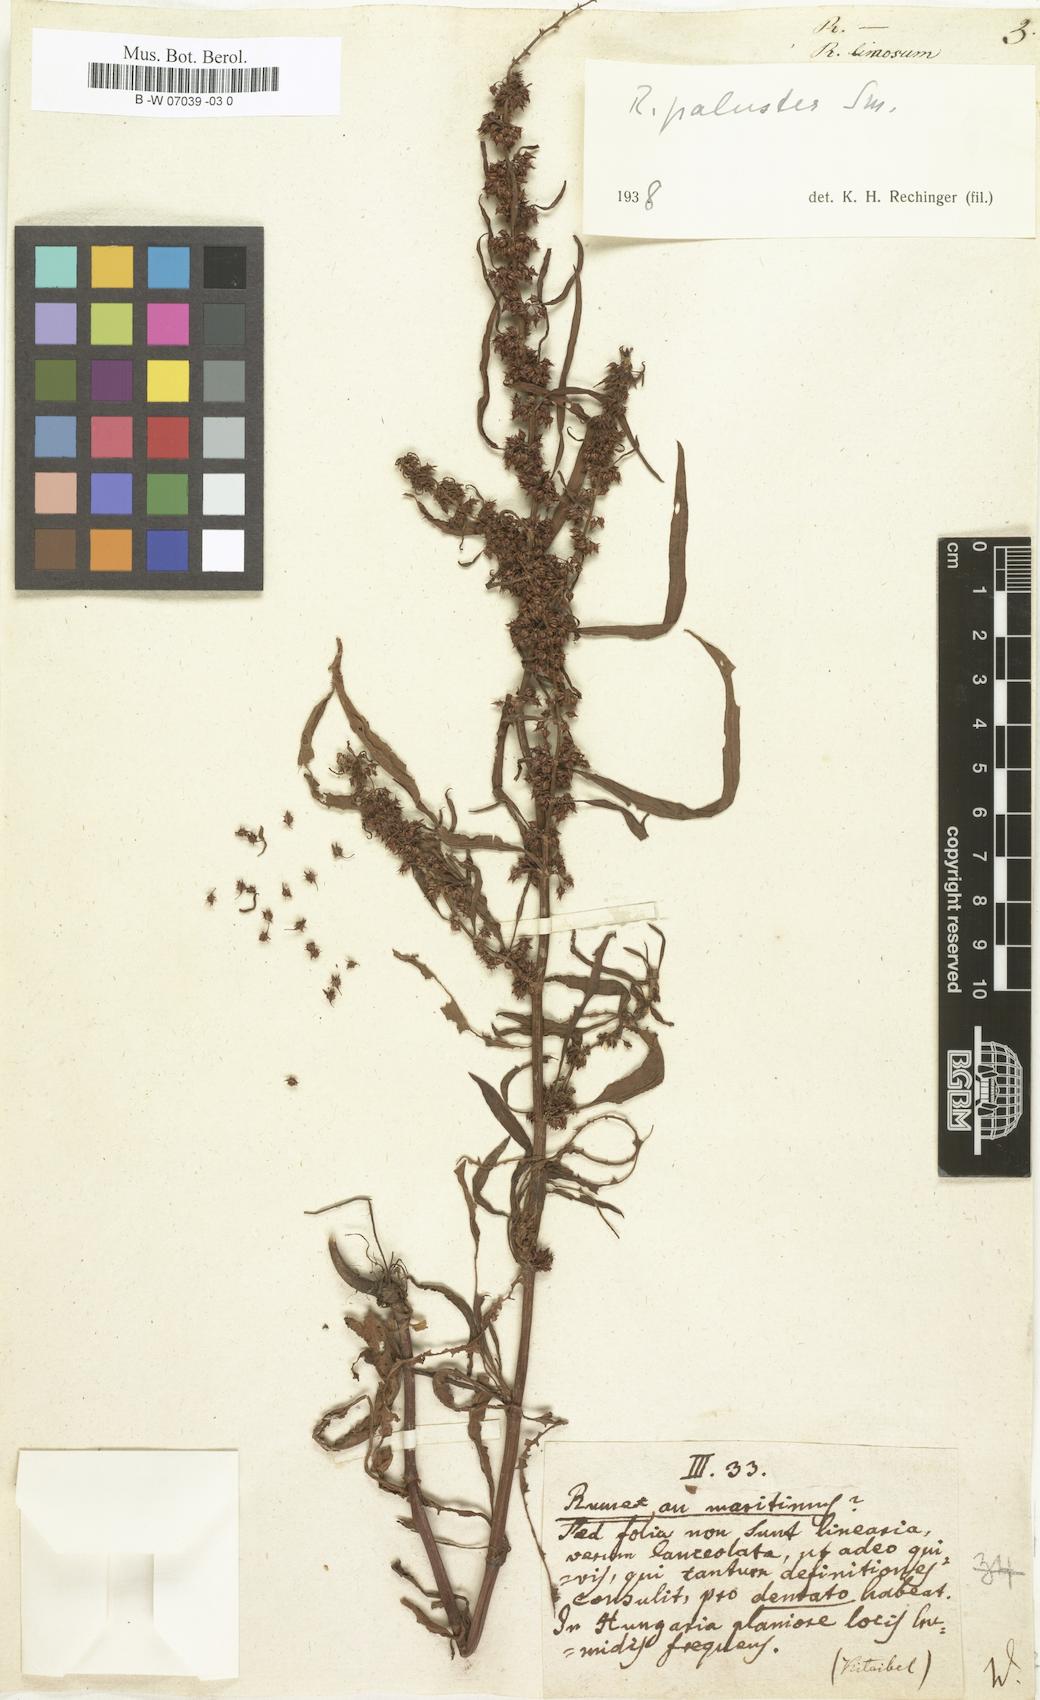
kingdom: Plantae
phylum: Tracheophyta
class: Magnoliopsida
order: Caryophyllales
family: Polygonaceae
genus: Rumex
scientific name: Rumex
